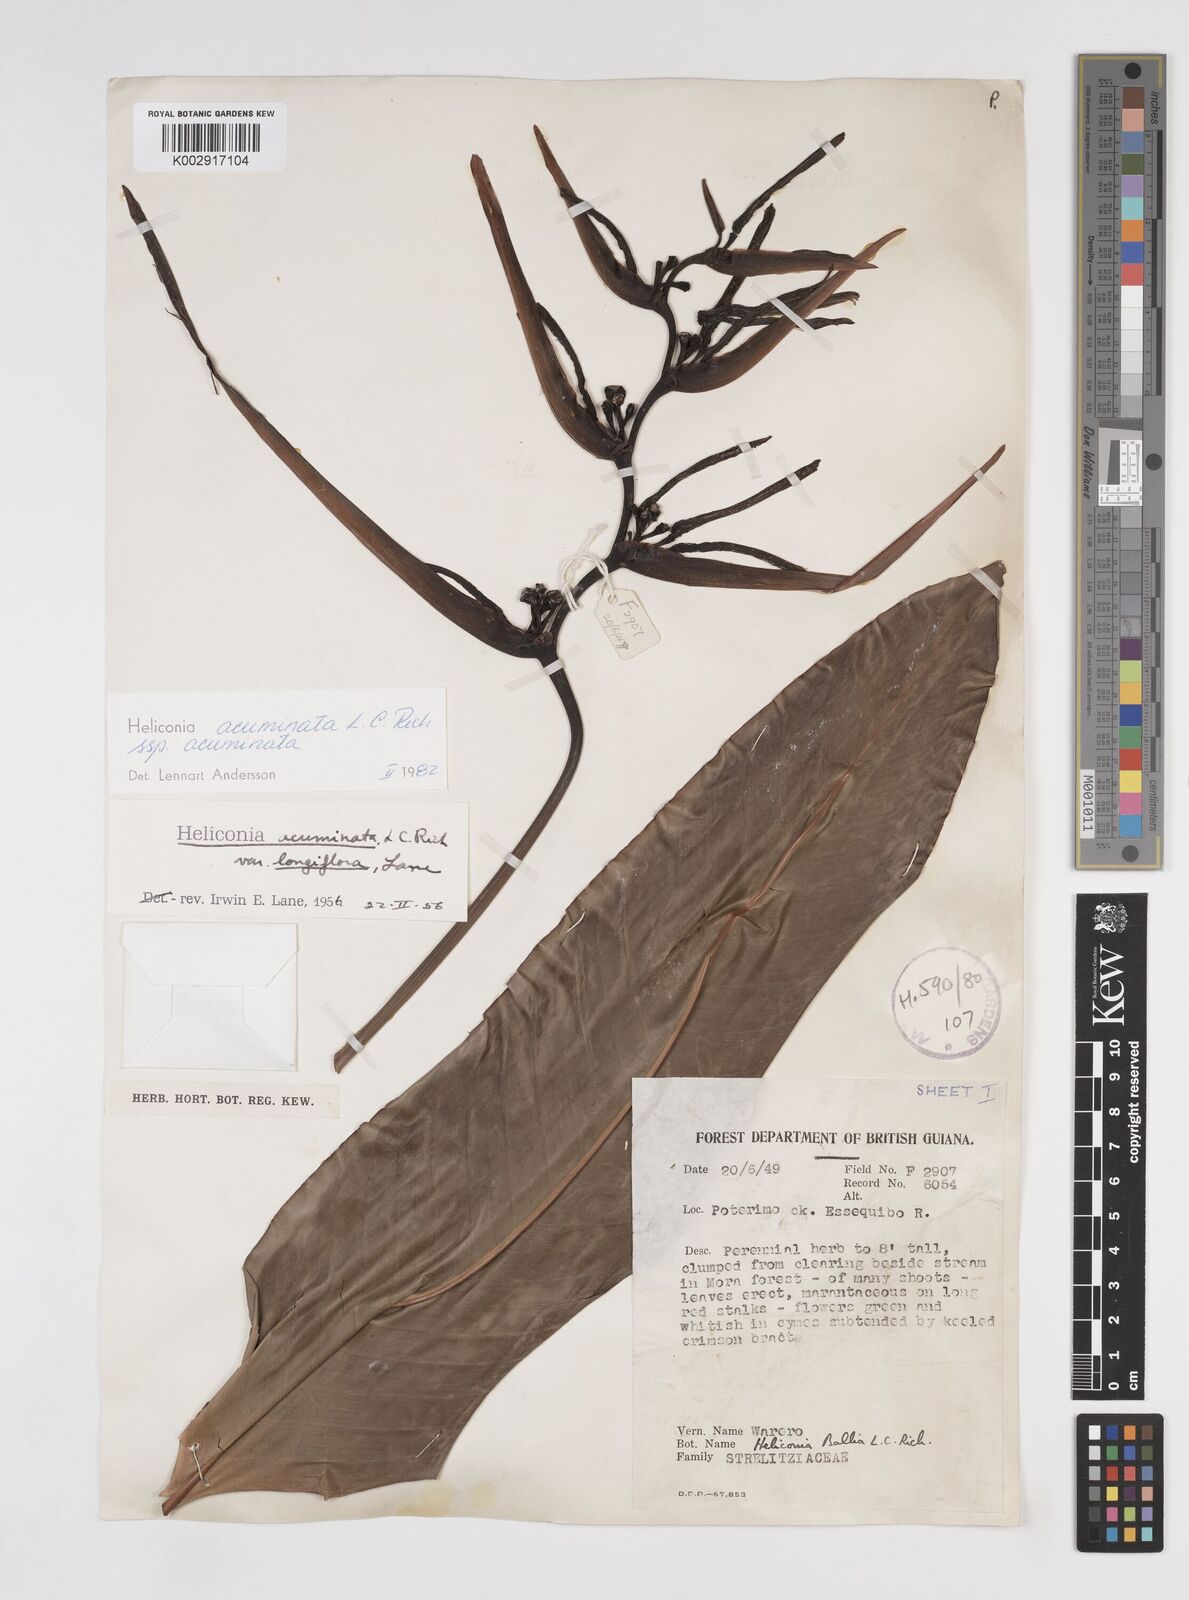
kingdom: Plantae
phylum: Tracheophyta
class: Liliopsida
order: Zingiberales
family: Heliconiaceae
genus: Heliconia
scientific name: Heliconia acuminata
